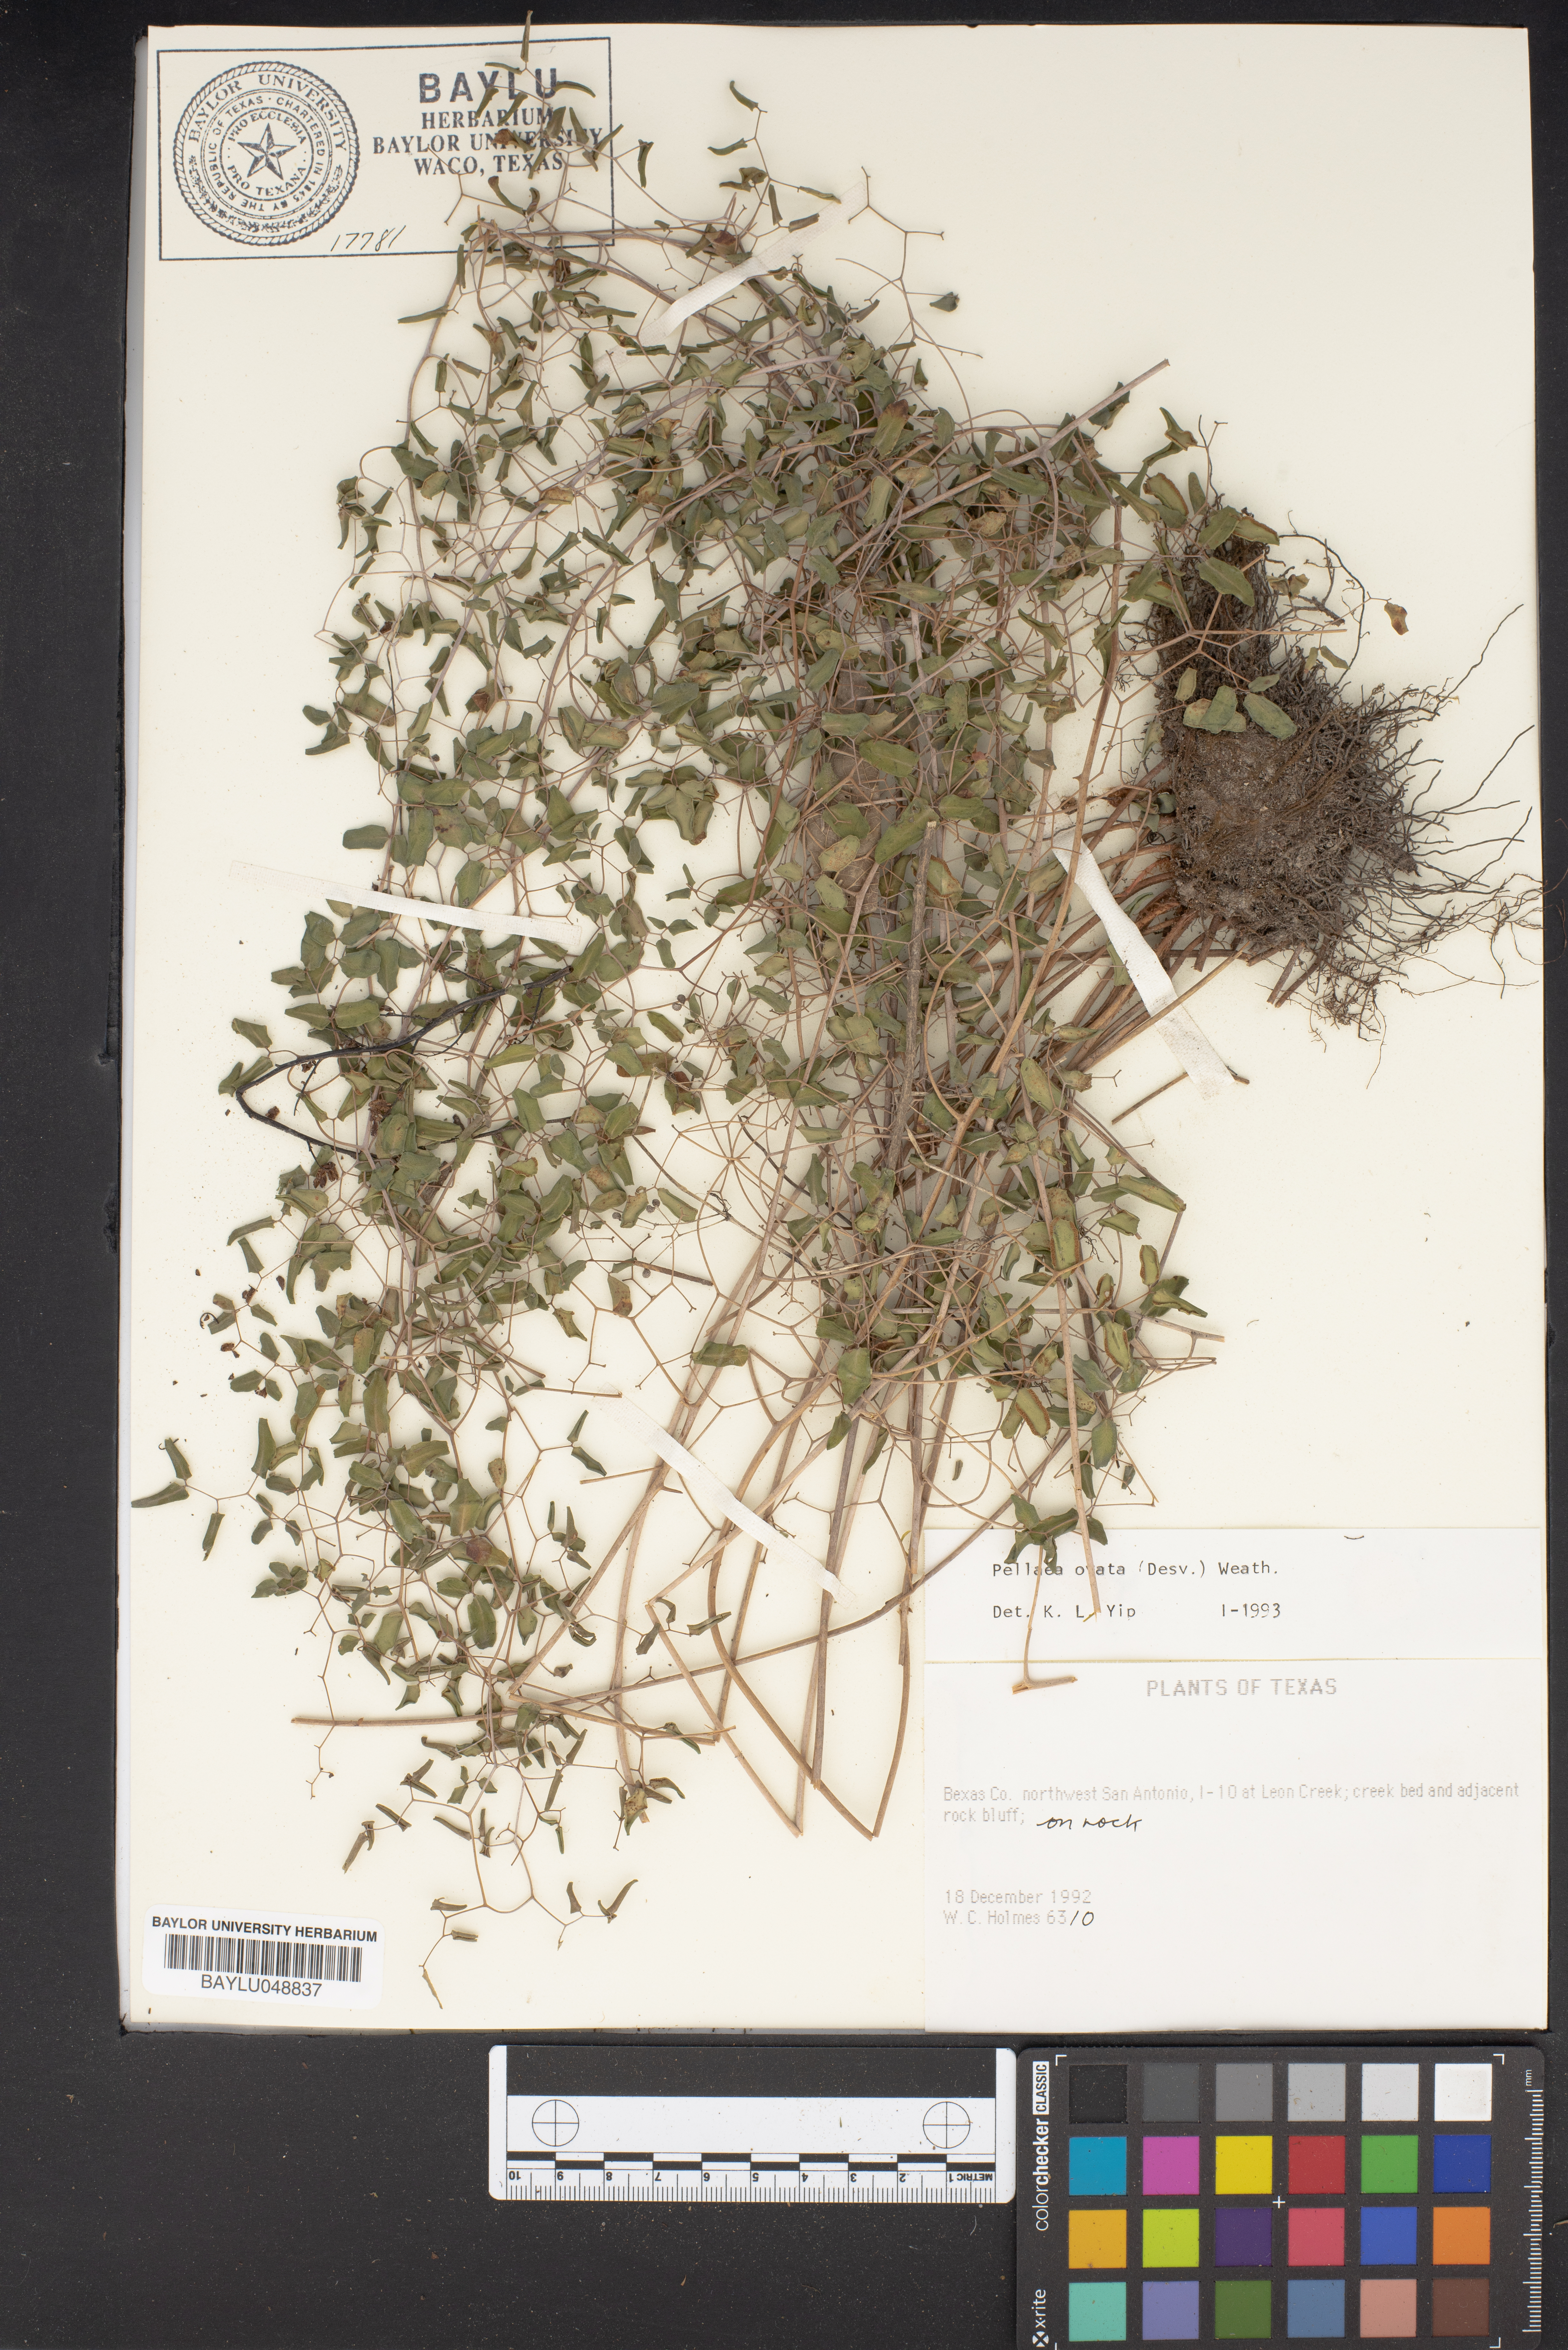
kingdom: Plantae
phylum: Tracheophyta
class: Polypodiopsida
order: Polypodiales
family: Pteridaceae
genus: Pellaea
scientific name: Pellaea ovata
